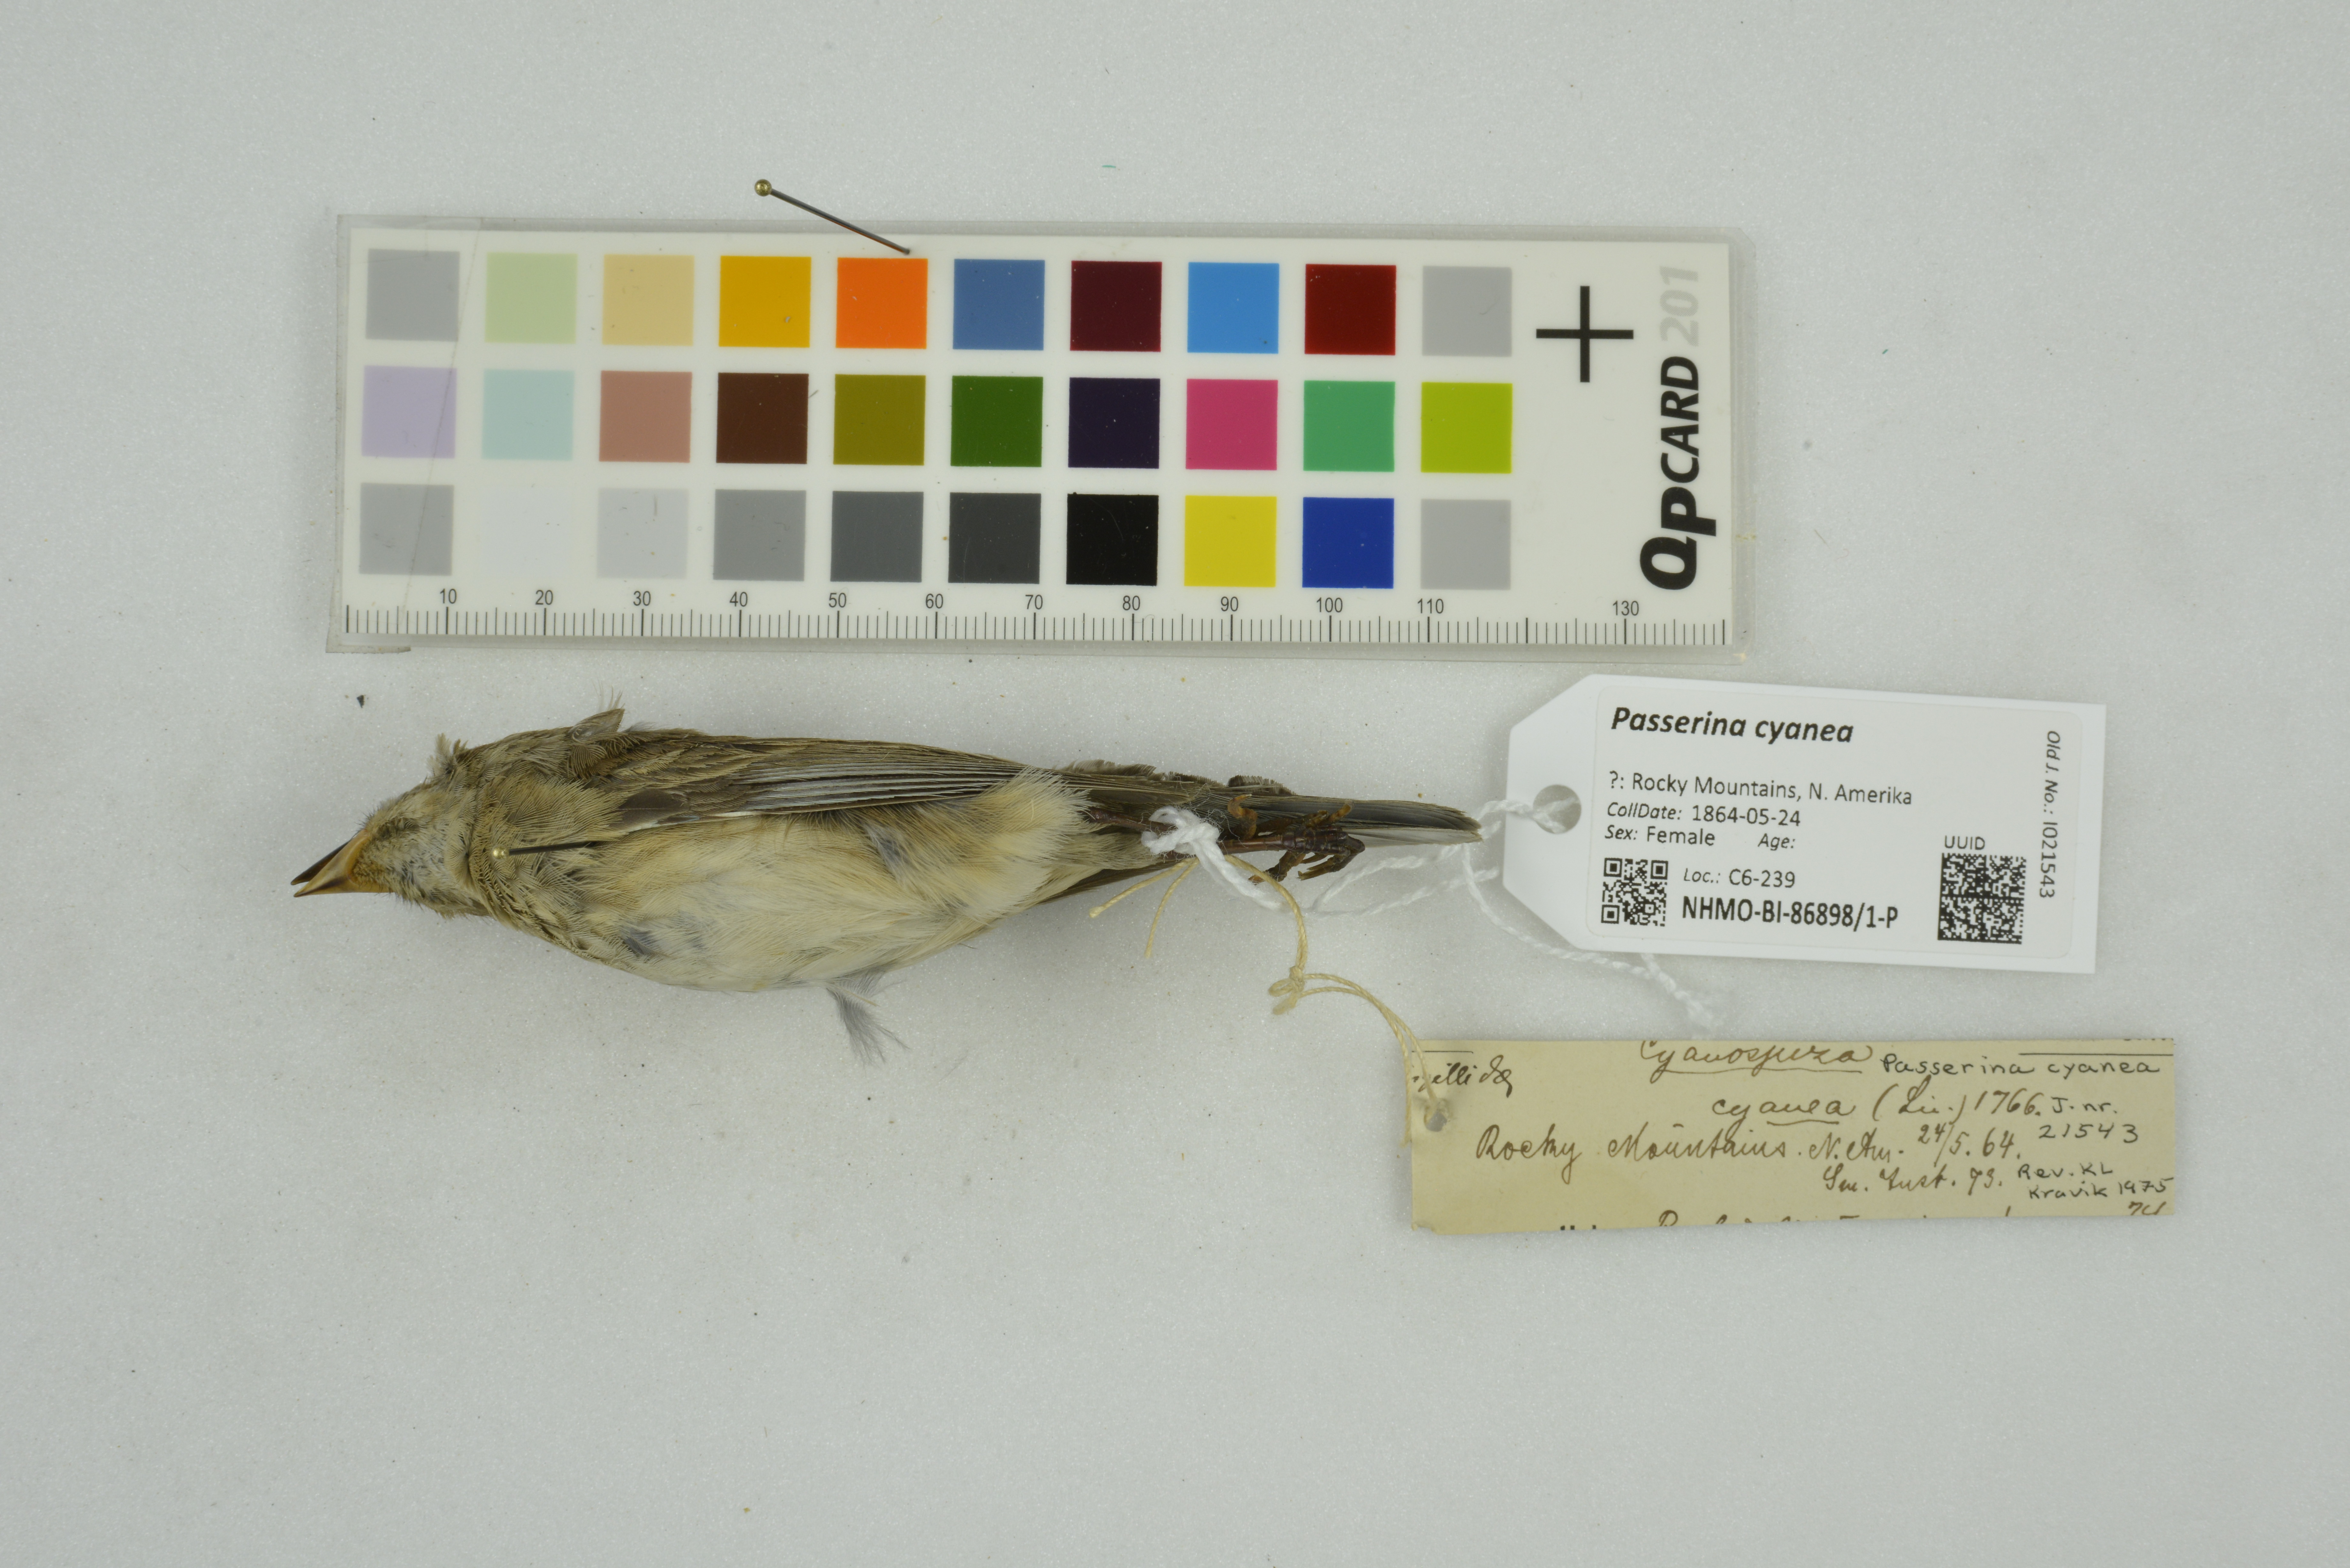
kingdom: Animalia
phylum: Chordata
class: Aves
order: Passeriformes
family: Cardinalidae
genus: Passerina
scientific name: Passerina cyanea
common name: Indigo bunting
